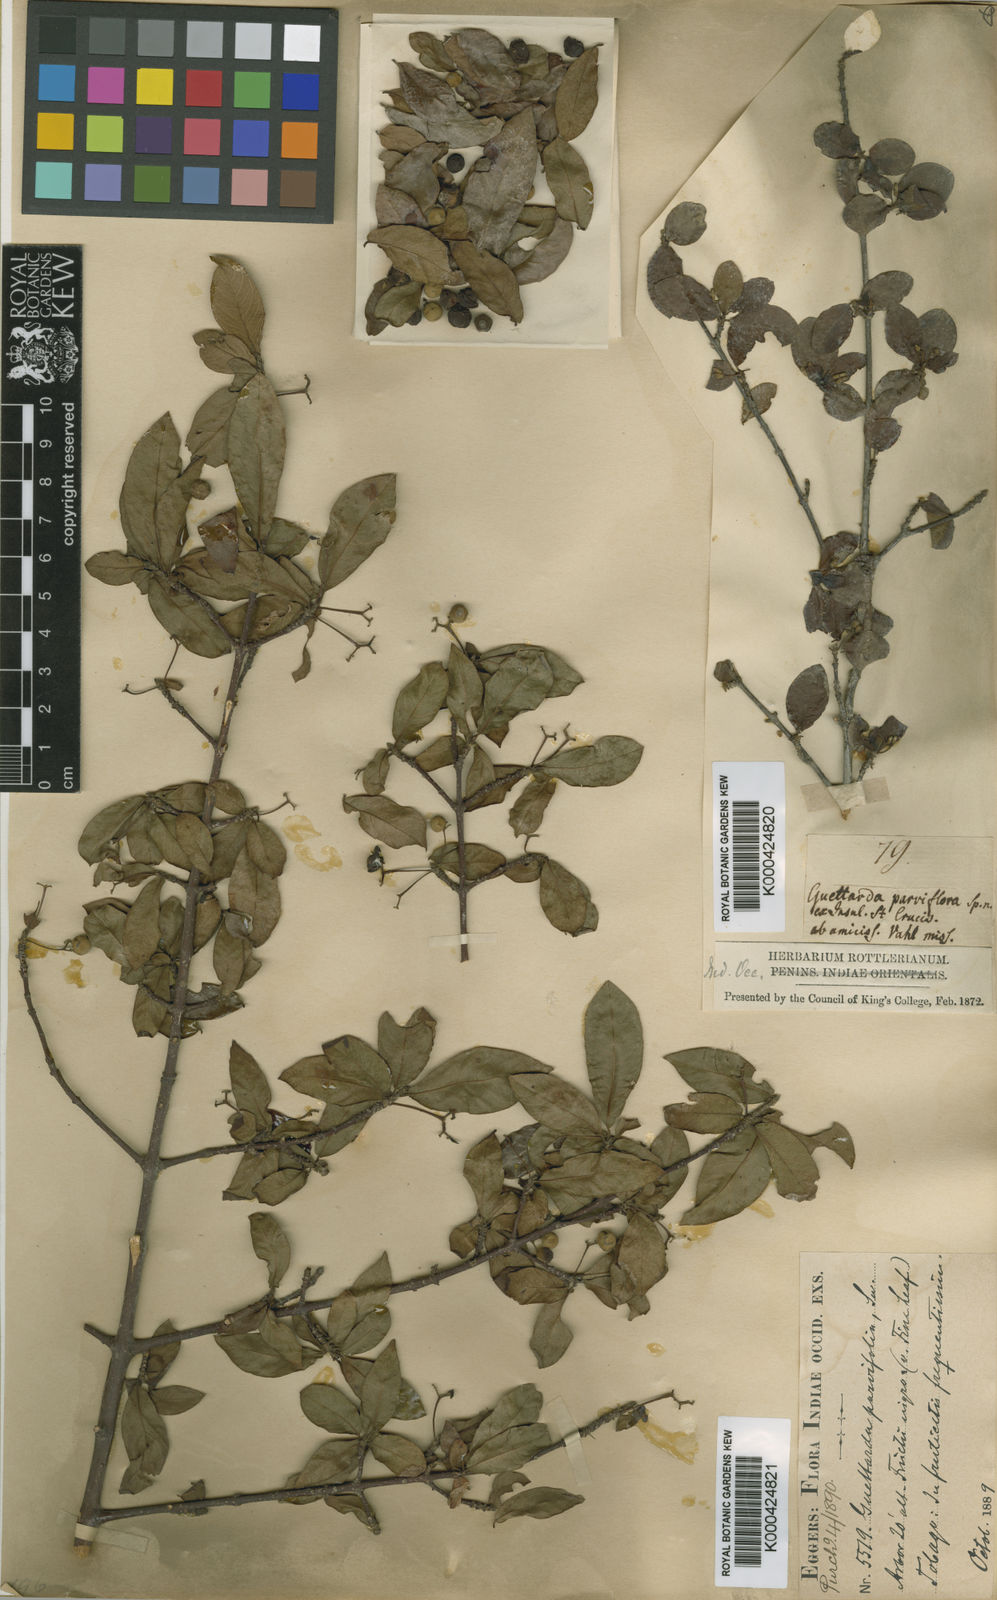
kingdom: Plantae
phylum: Tracheophyta
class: Magnoliopsida
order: Gentianales
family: Rubiaceae
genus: Guettarda
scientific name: Guettarda odorata
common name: Wild cherry
